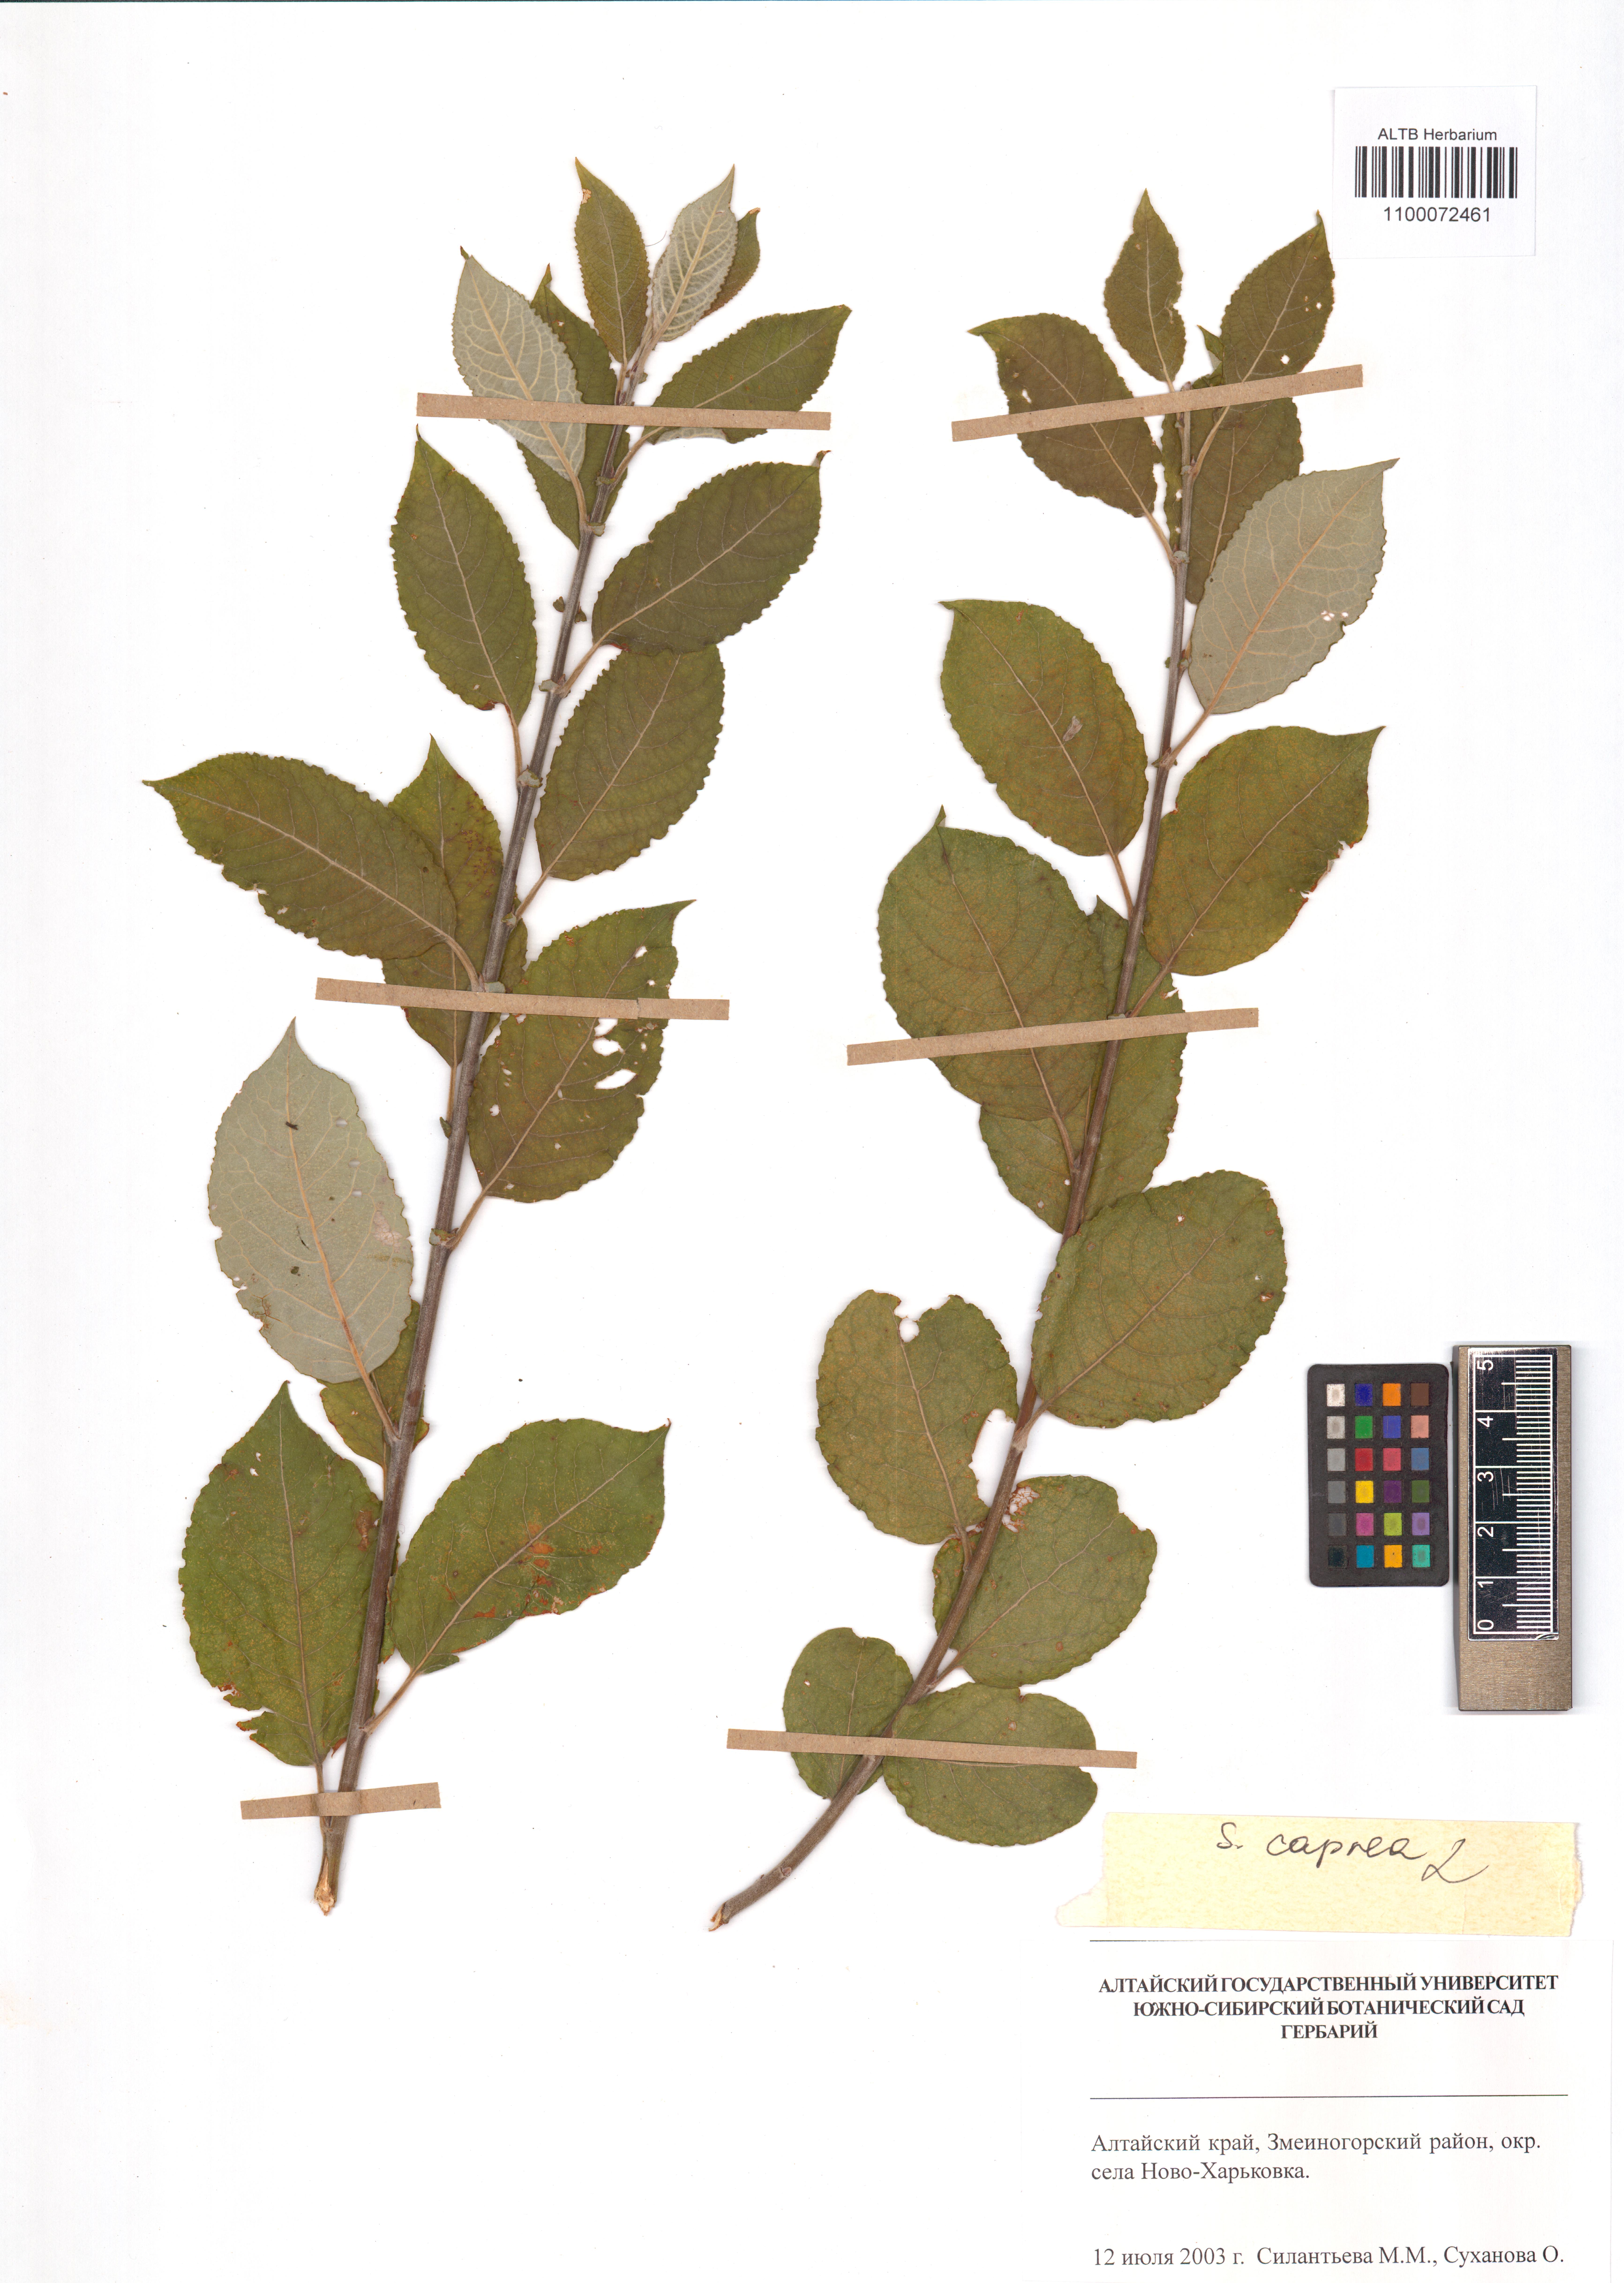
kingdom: Plantae
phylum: Tracheophyta
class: Magnoliopsida
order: Malpighiales
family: Salicaceae
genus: Salix
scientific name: Salix caprea
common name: Goat willow
